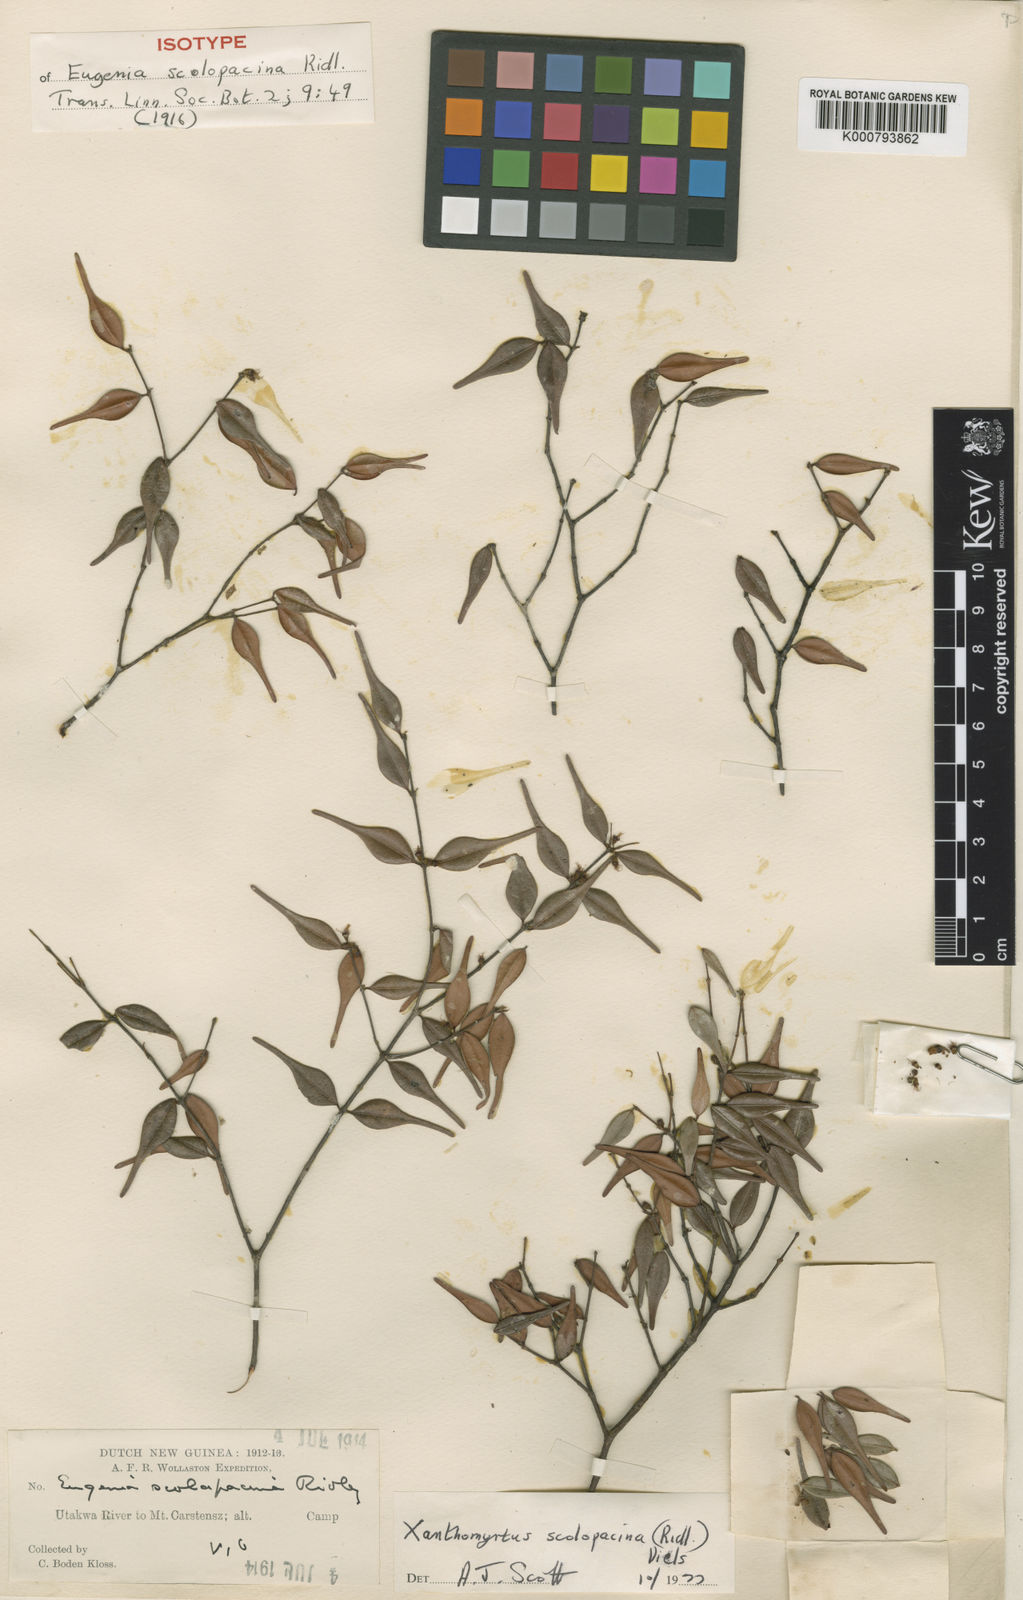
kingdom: Plantae
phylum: Tracheophyta
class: Magnoliopsida
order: Myrtales
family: Myrtaceae
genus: Xanthomyrtus
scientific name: Xanthomyrtus scolopacina
